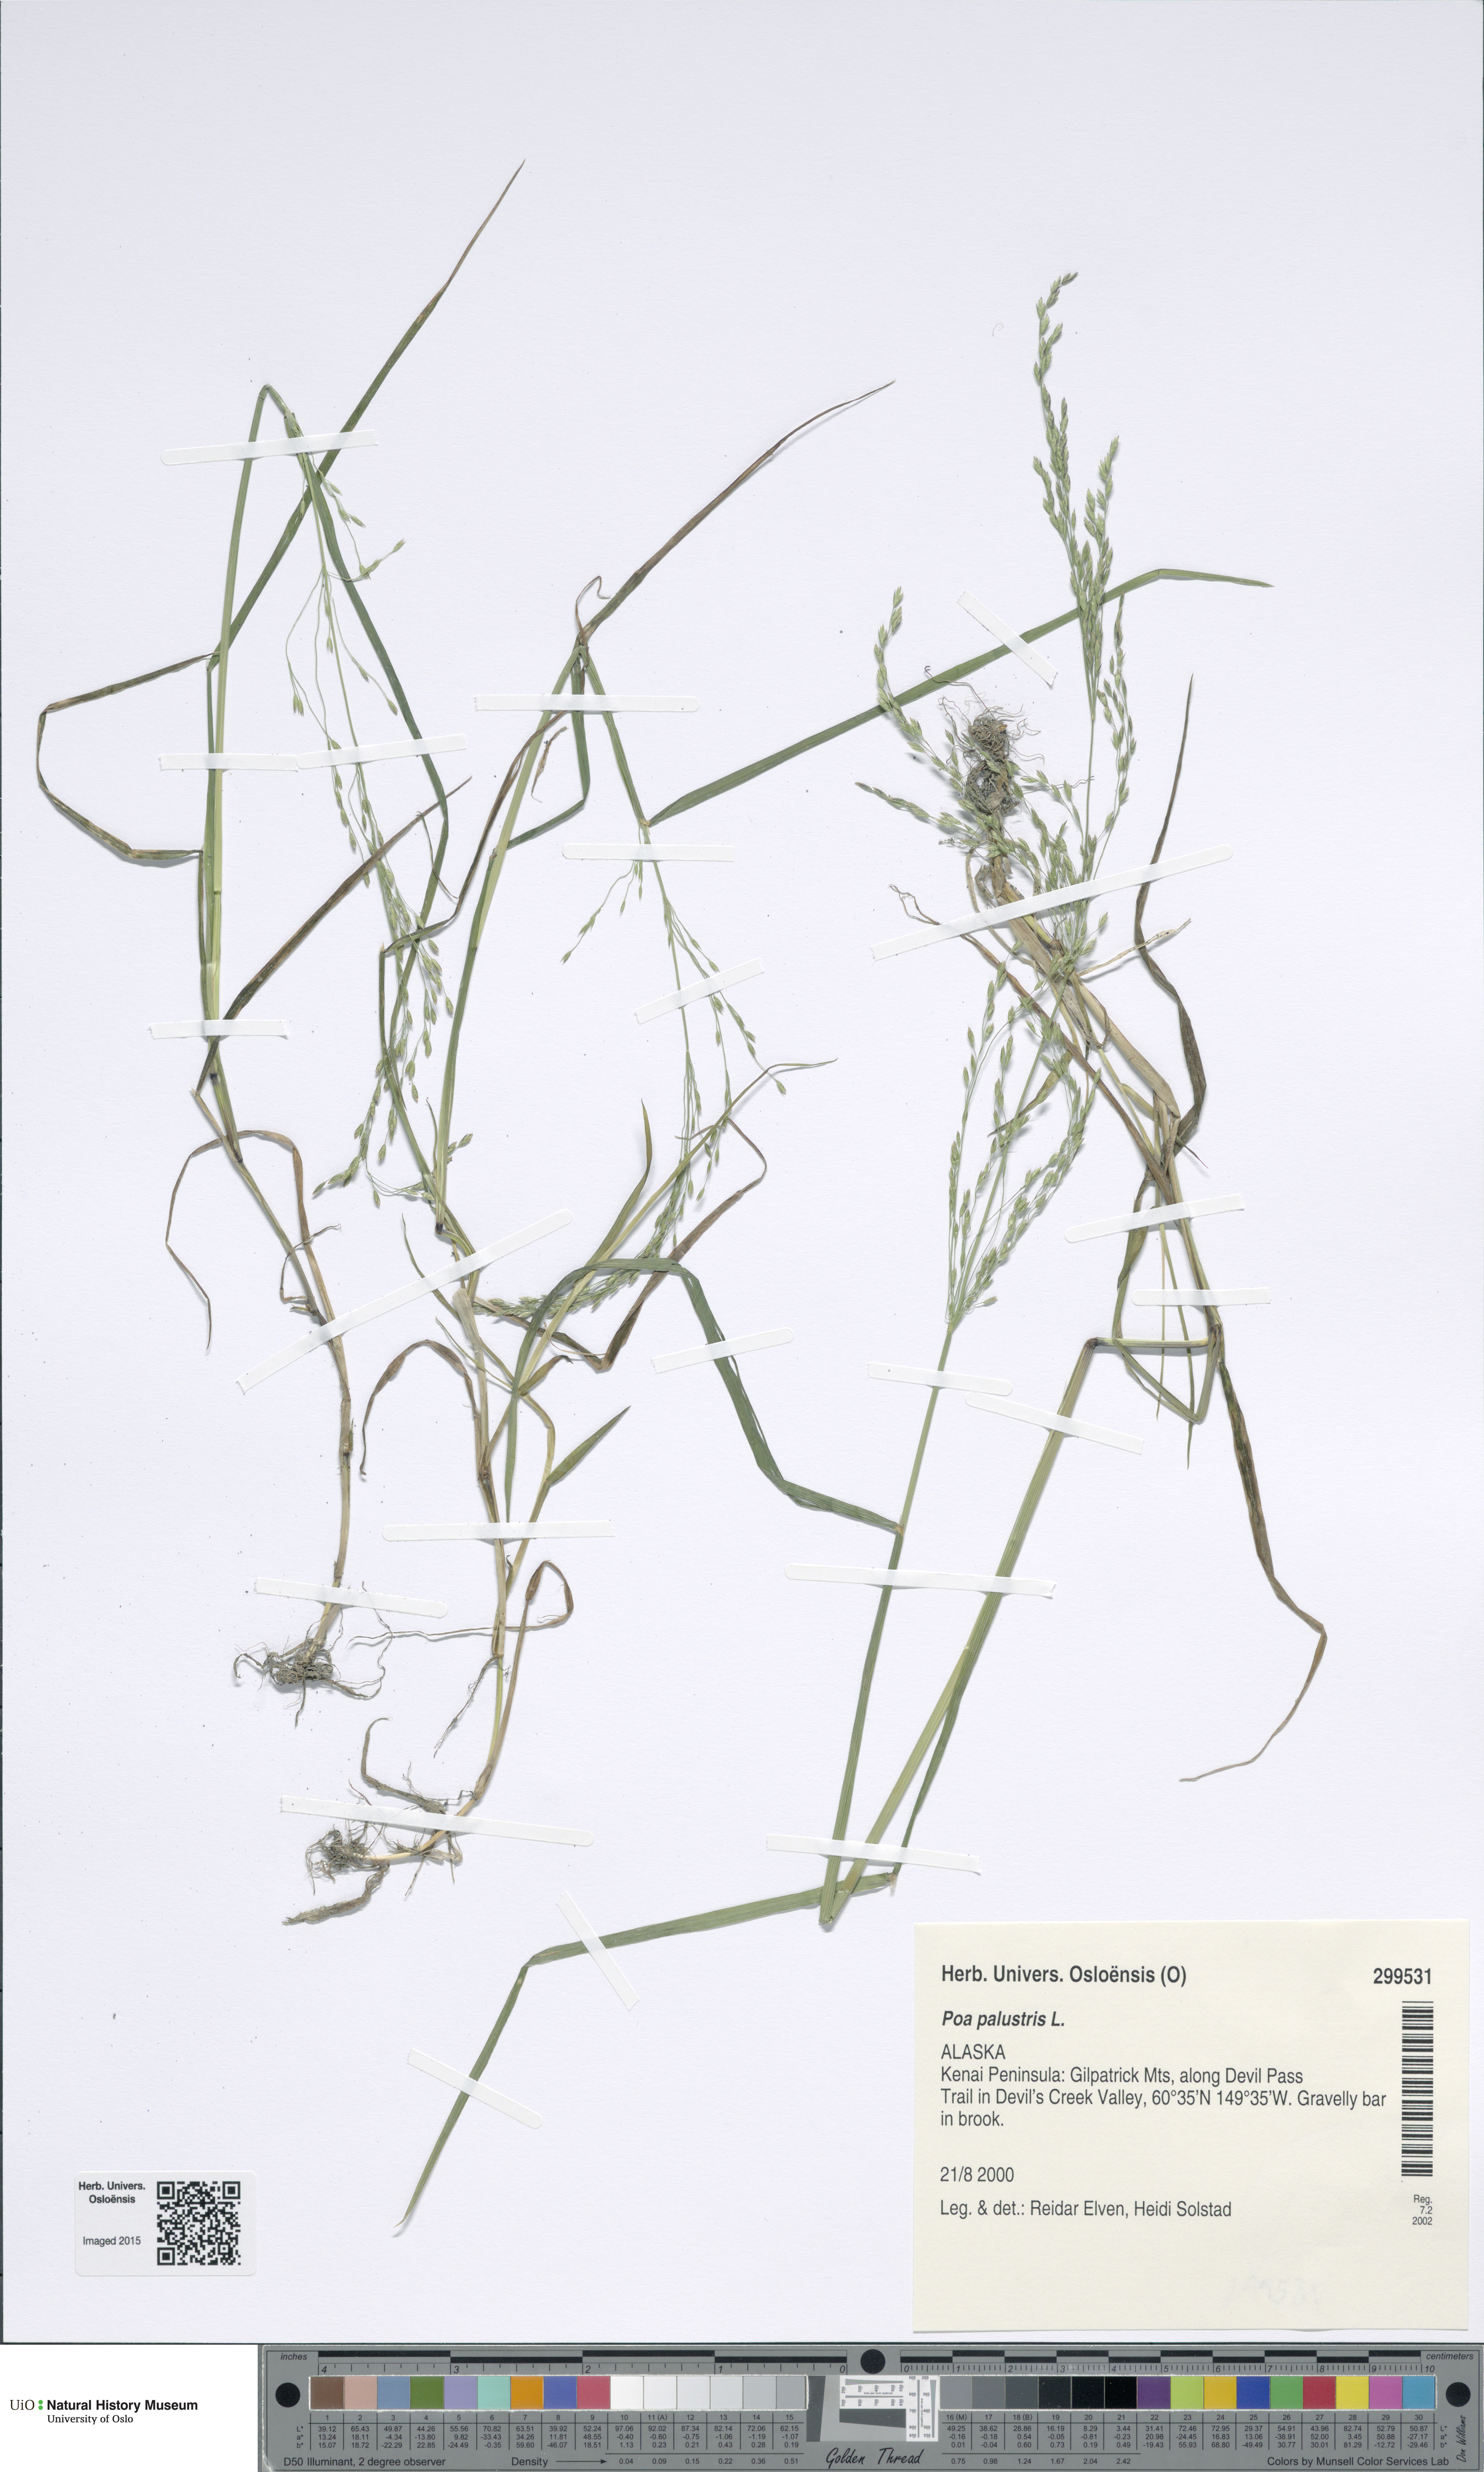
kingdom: Plantae
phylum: Tracheophyta
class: Liliopsida
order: Poales
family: Poaceae
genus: Poa
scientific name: Poa palustris
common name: Swamp meadow-grass
